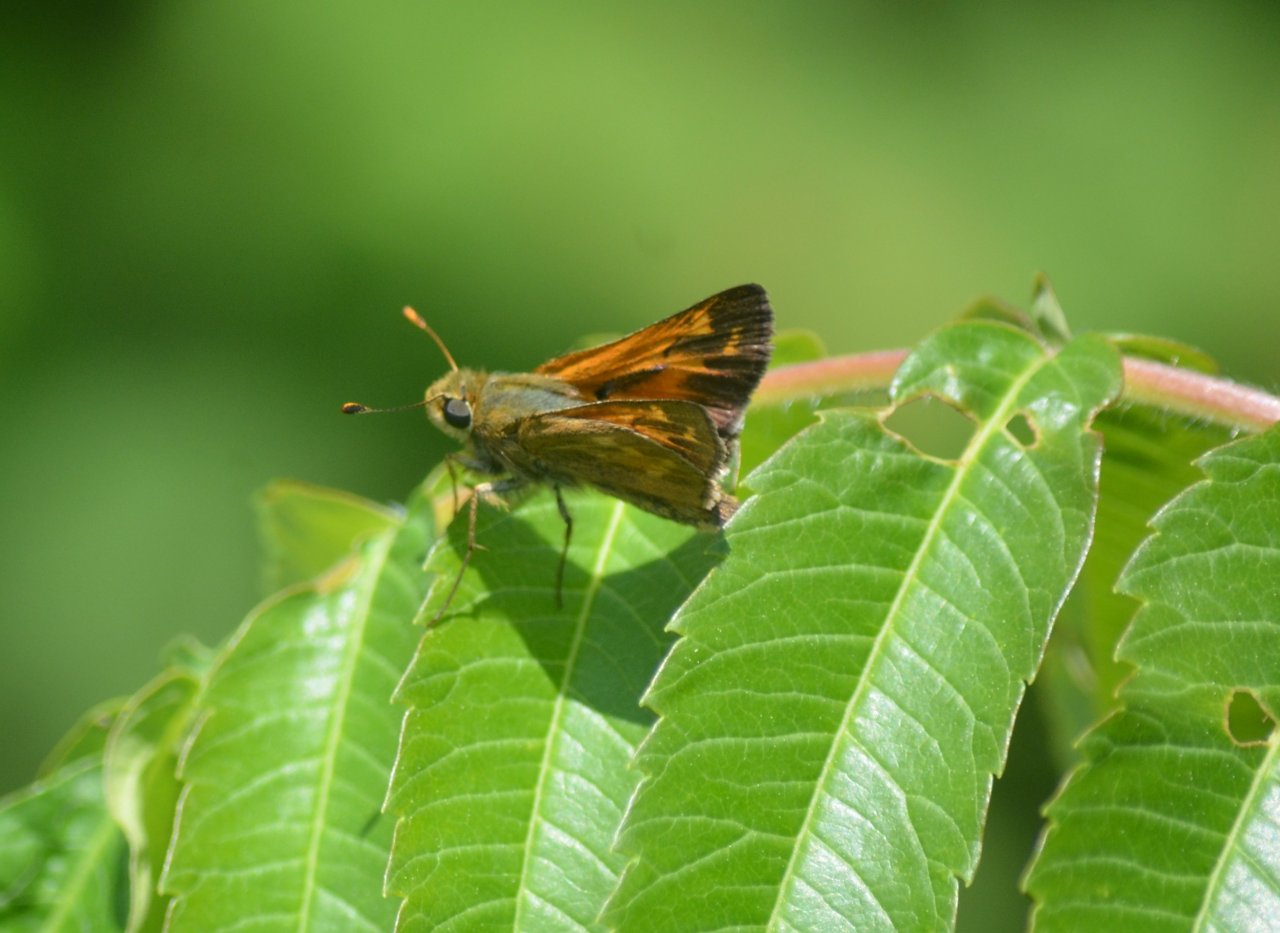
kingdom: Animalia
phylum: Arthropoda
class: Insecta
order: Lepidoptera
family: Hesperiidae
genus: Hesperia
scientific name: Hesperia sassacus
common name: Sassacus Skipper
